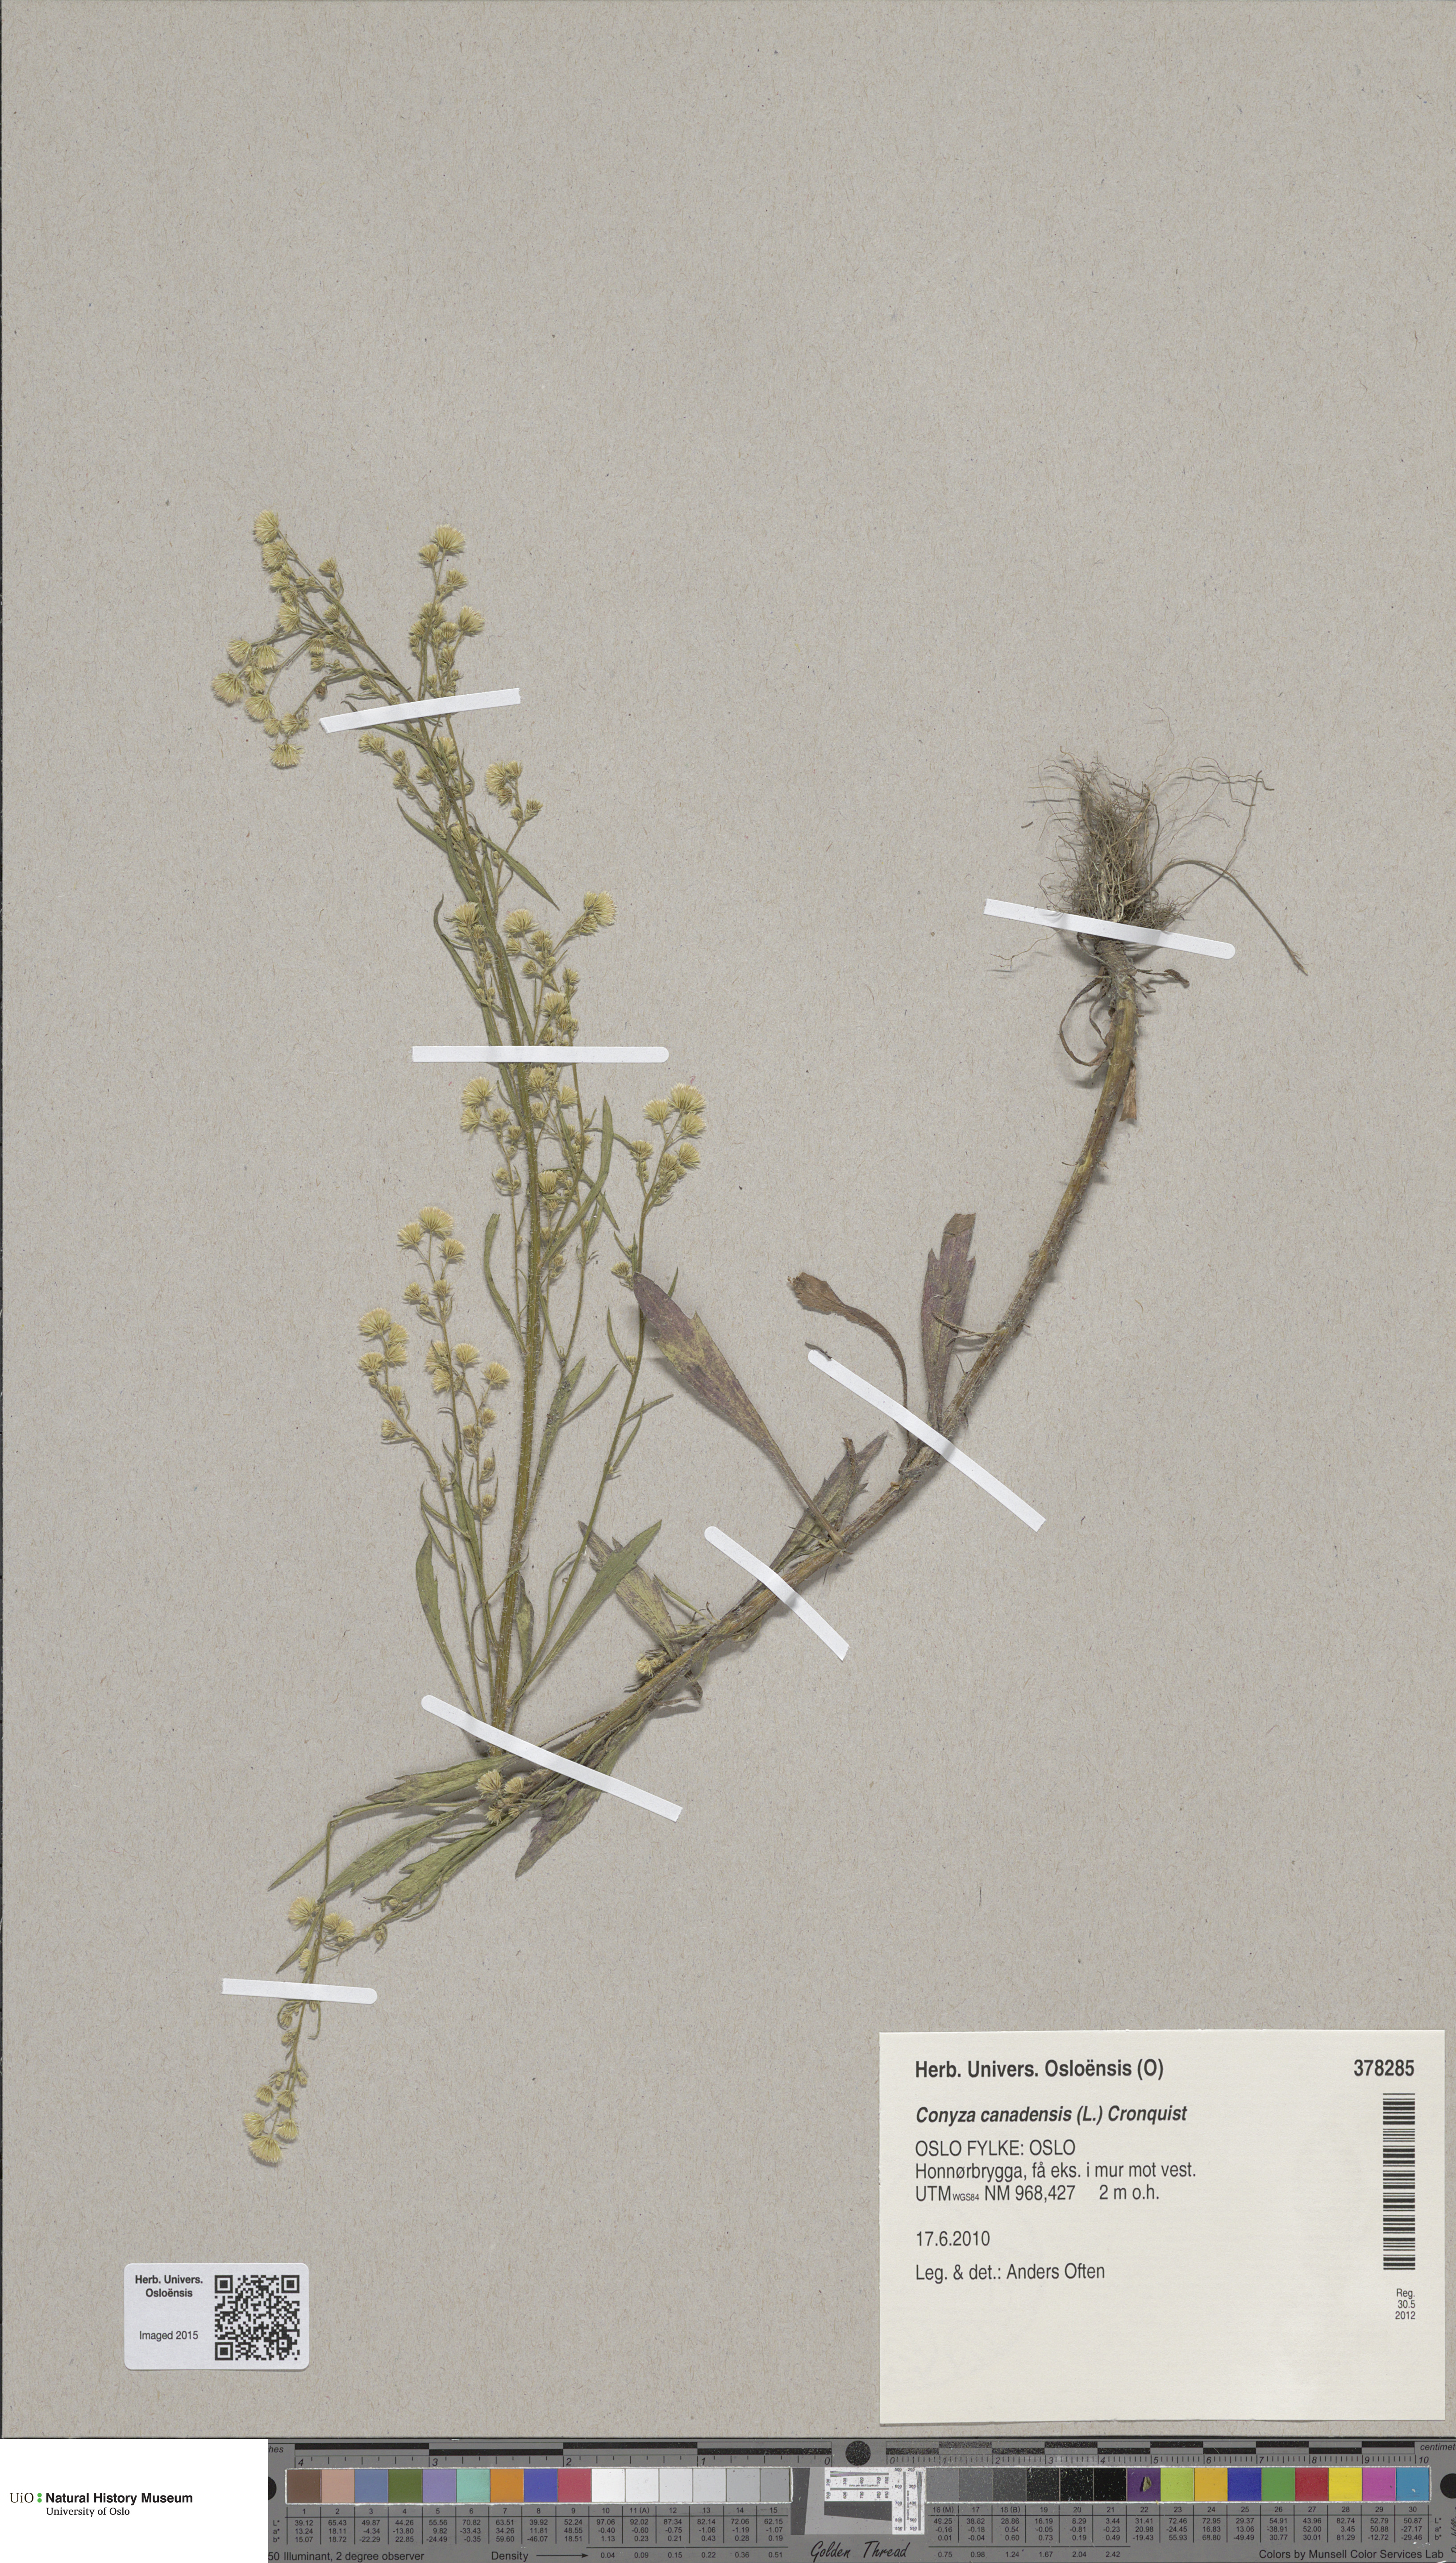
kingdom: Plantae
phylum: Tracheophyta
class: Magnoliopsida
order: Asterales
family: Asteraceae
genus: Erigeron
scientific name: Erigeron canadensis
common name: Canadian fleabane
